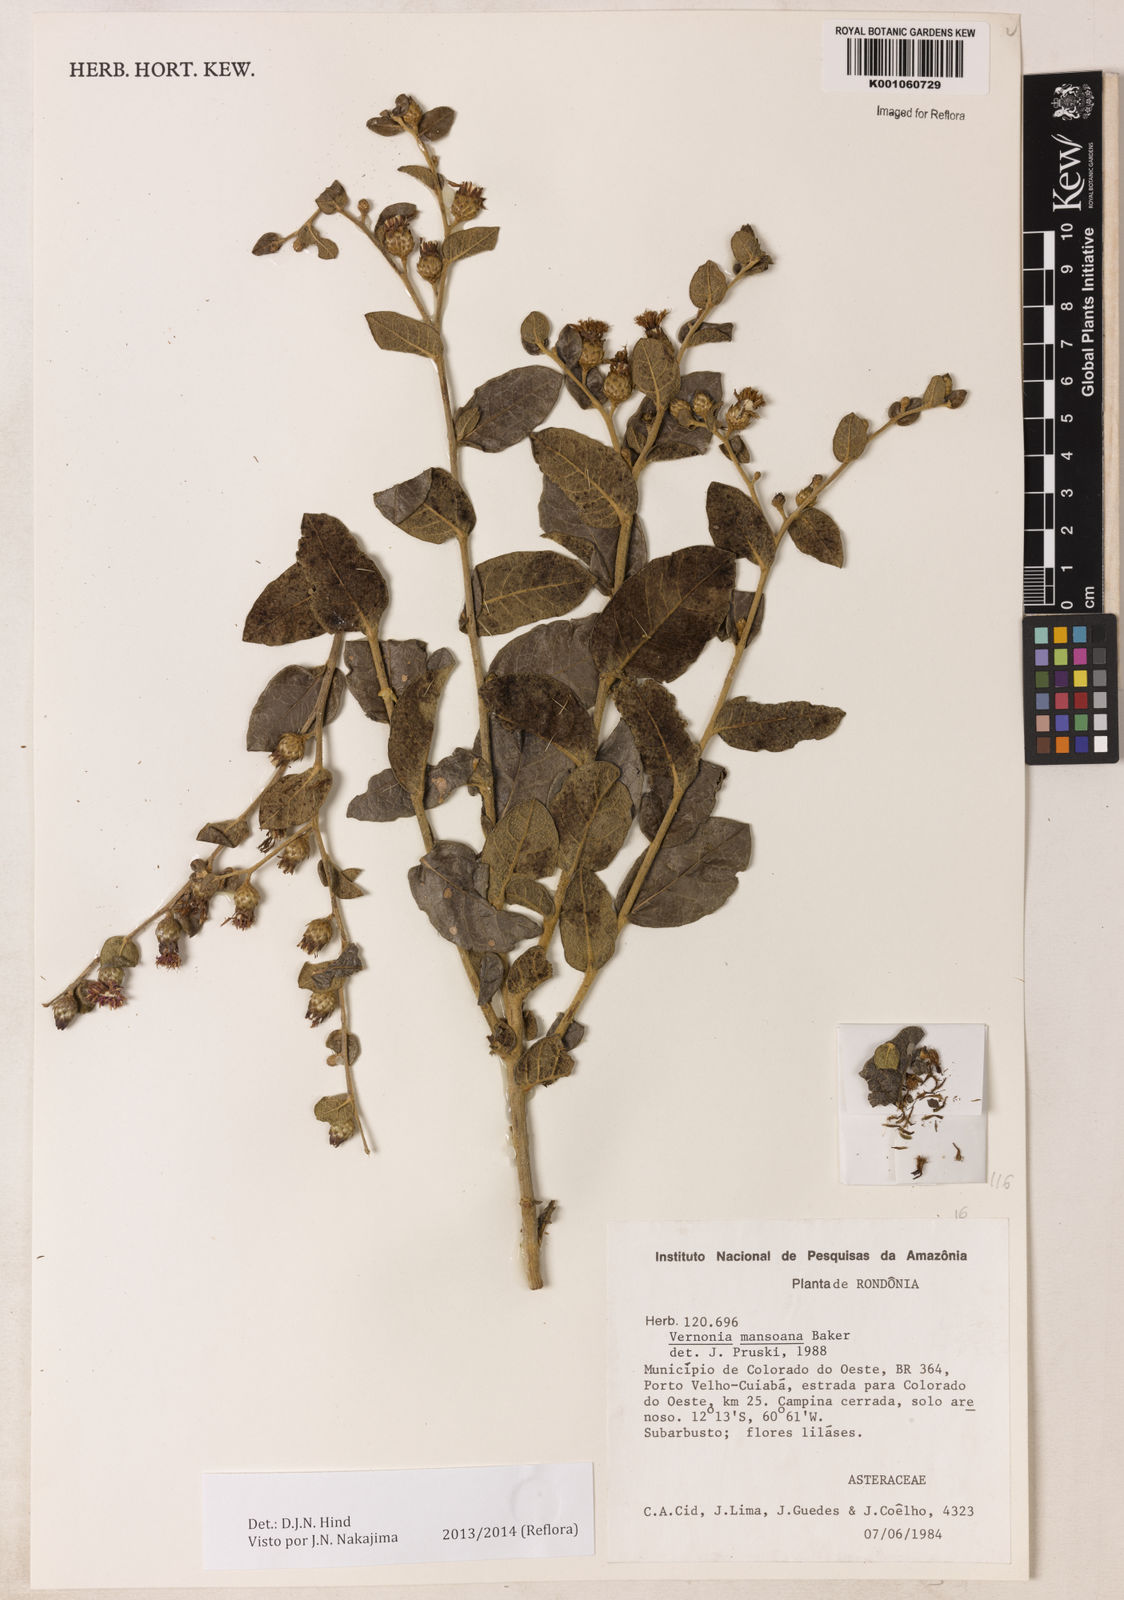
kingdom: Plantae
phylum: Tracheophyta
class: Magnoliopsida
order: Asterales
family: Asteraceae
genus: Lessingianthus
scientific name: Lessingianthus mansoanus
